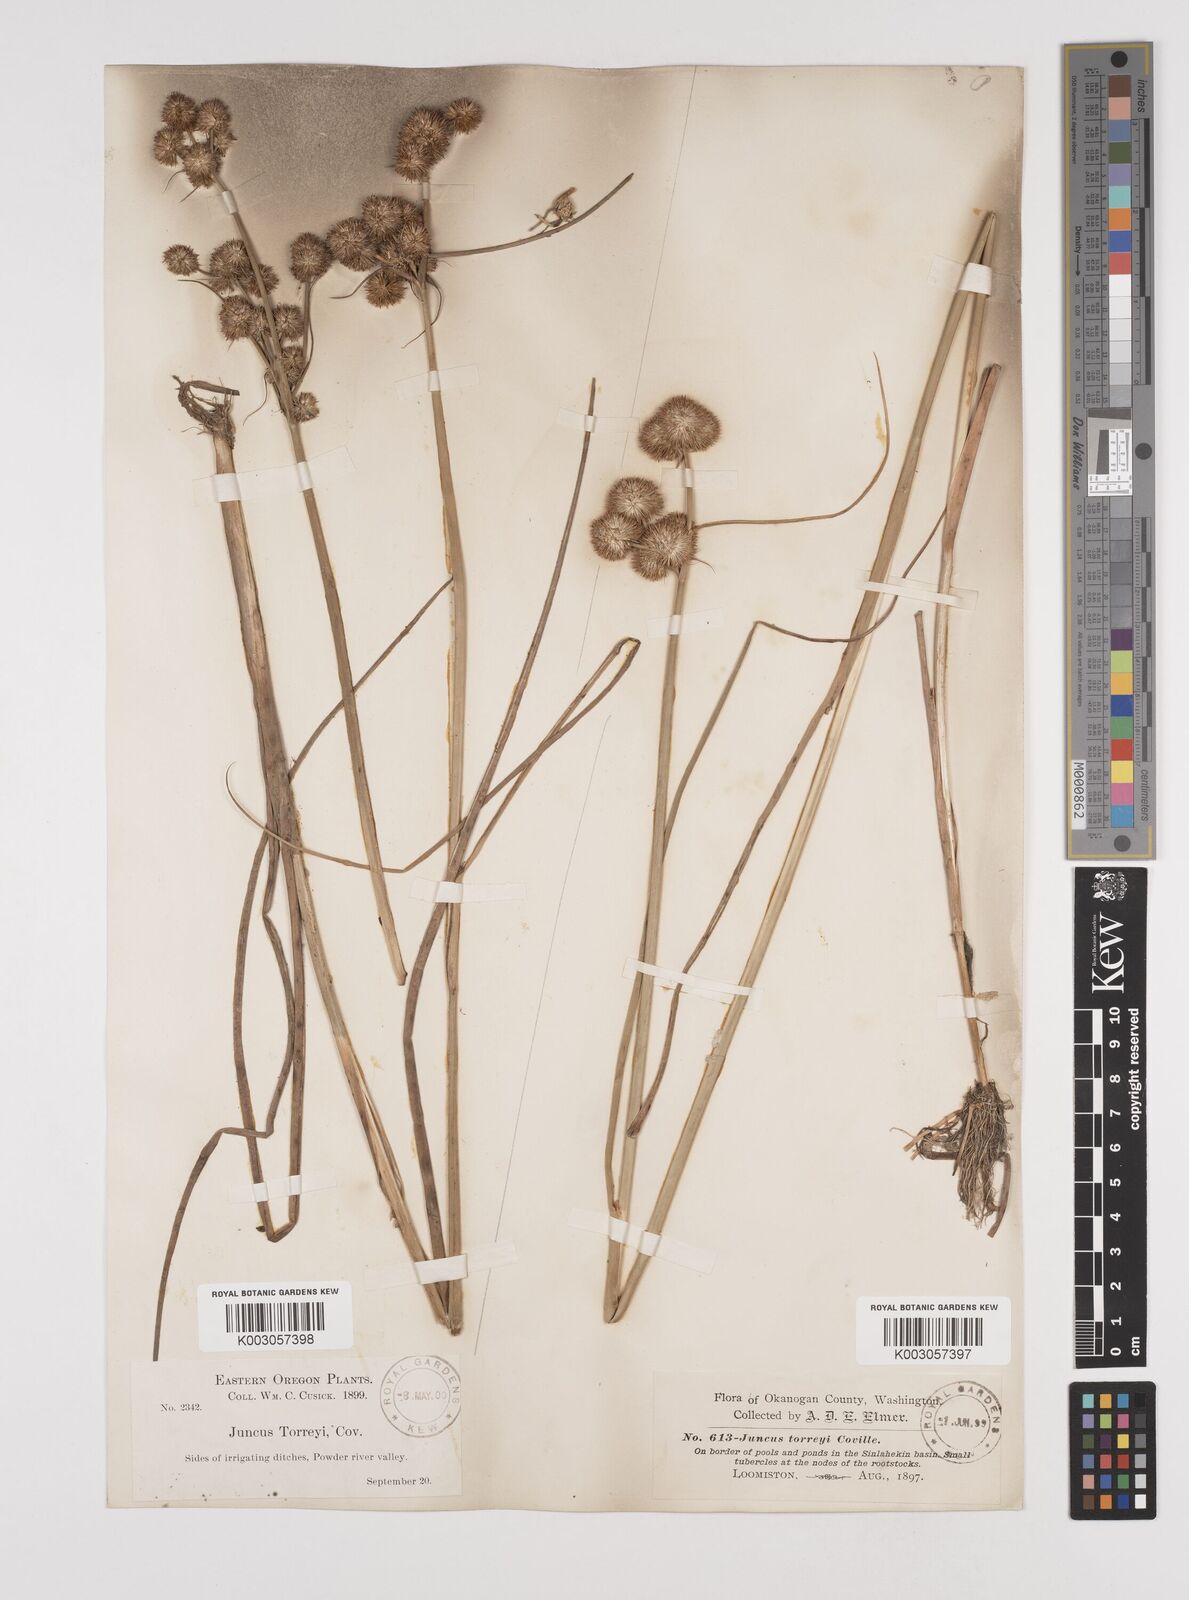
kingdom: Plantae
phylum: Tracheophyta
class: Liliopsida
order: Poales
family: Juncaceae
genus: Juncus
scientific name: Juncus torreyi
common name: Torrey's rush
